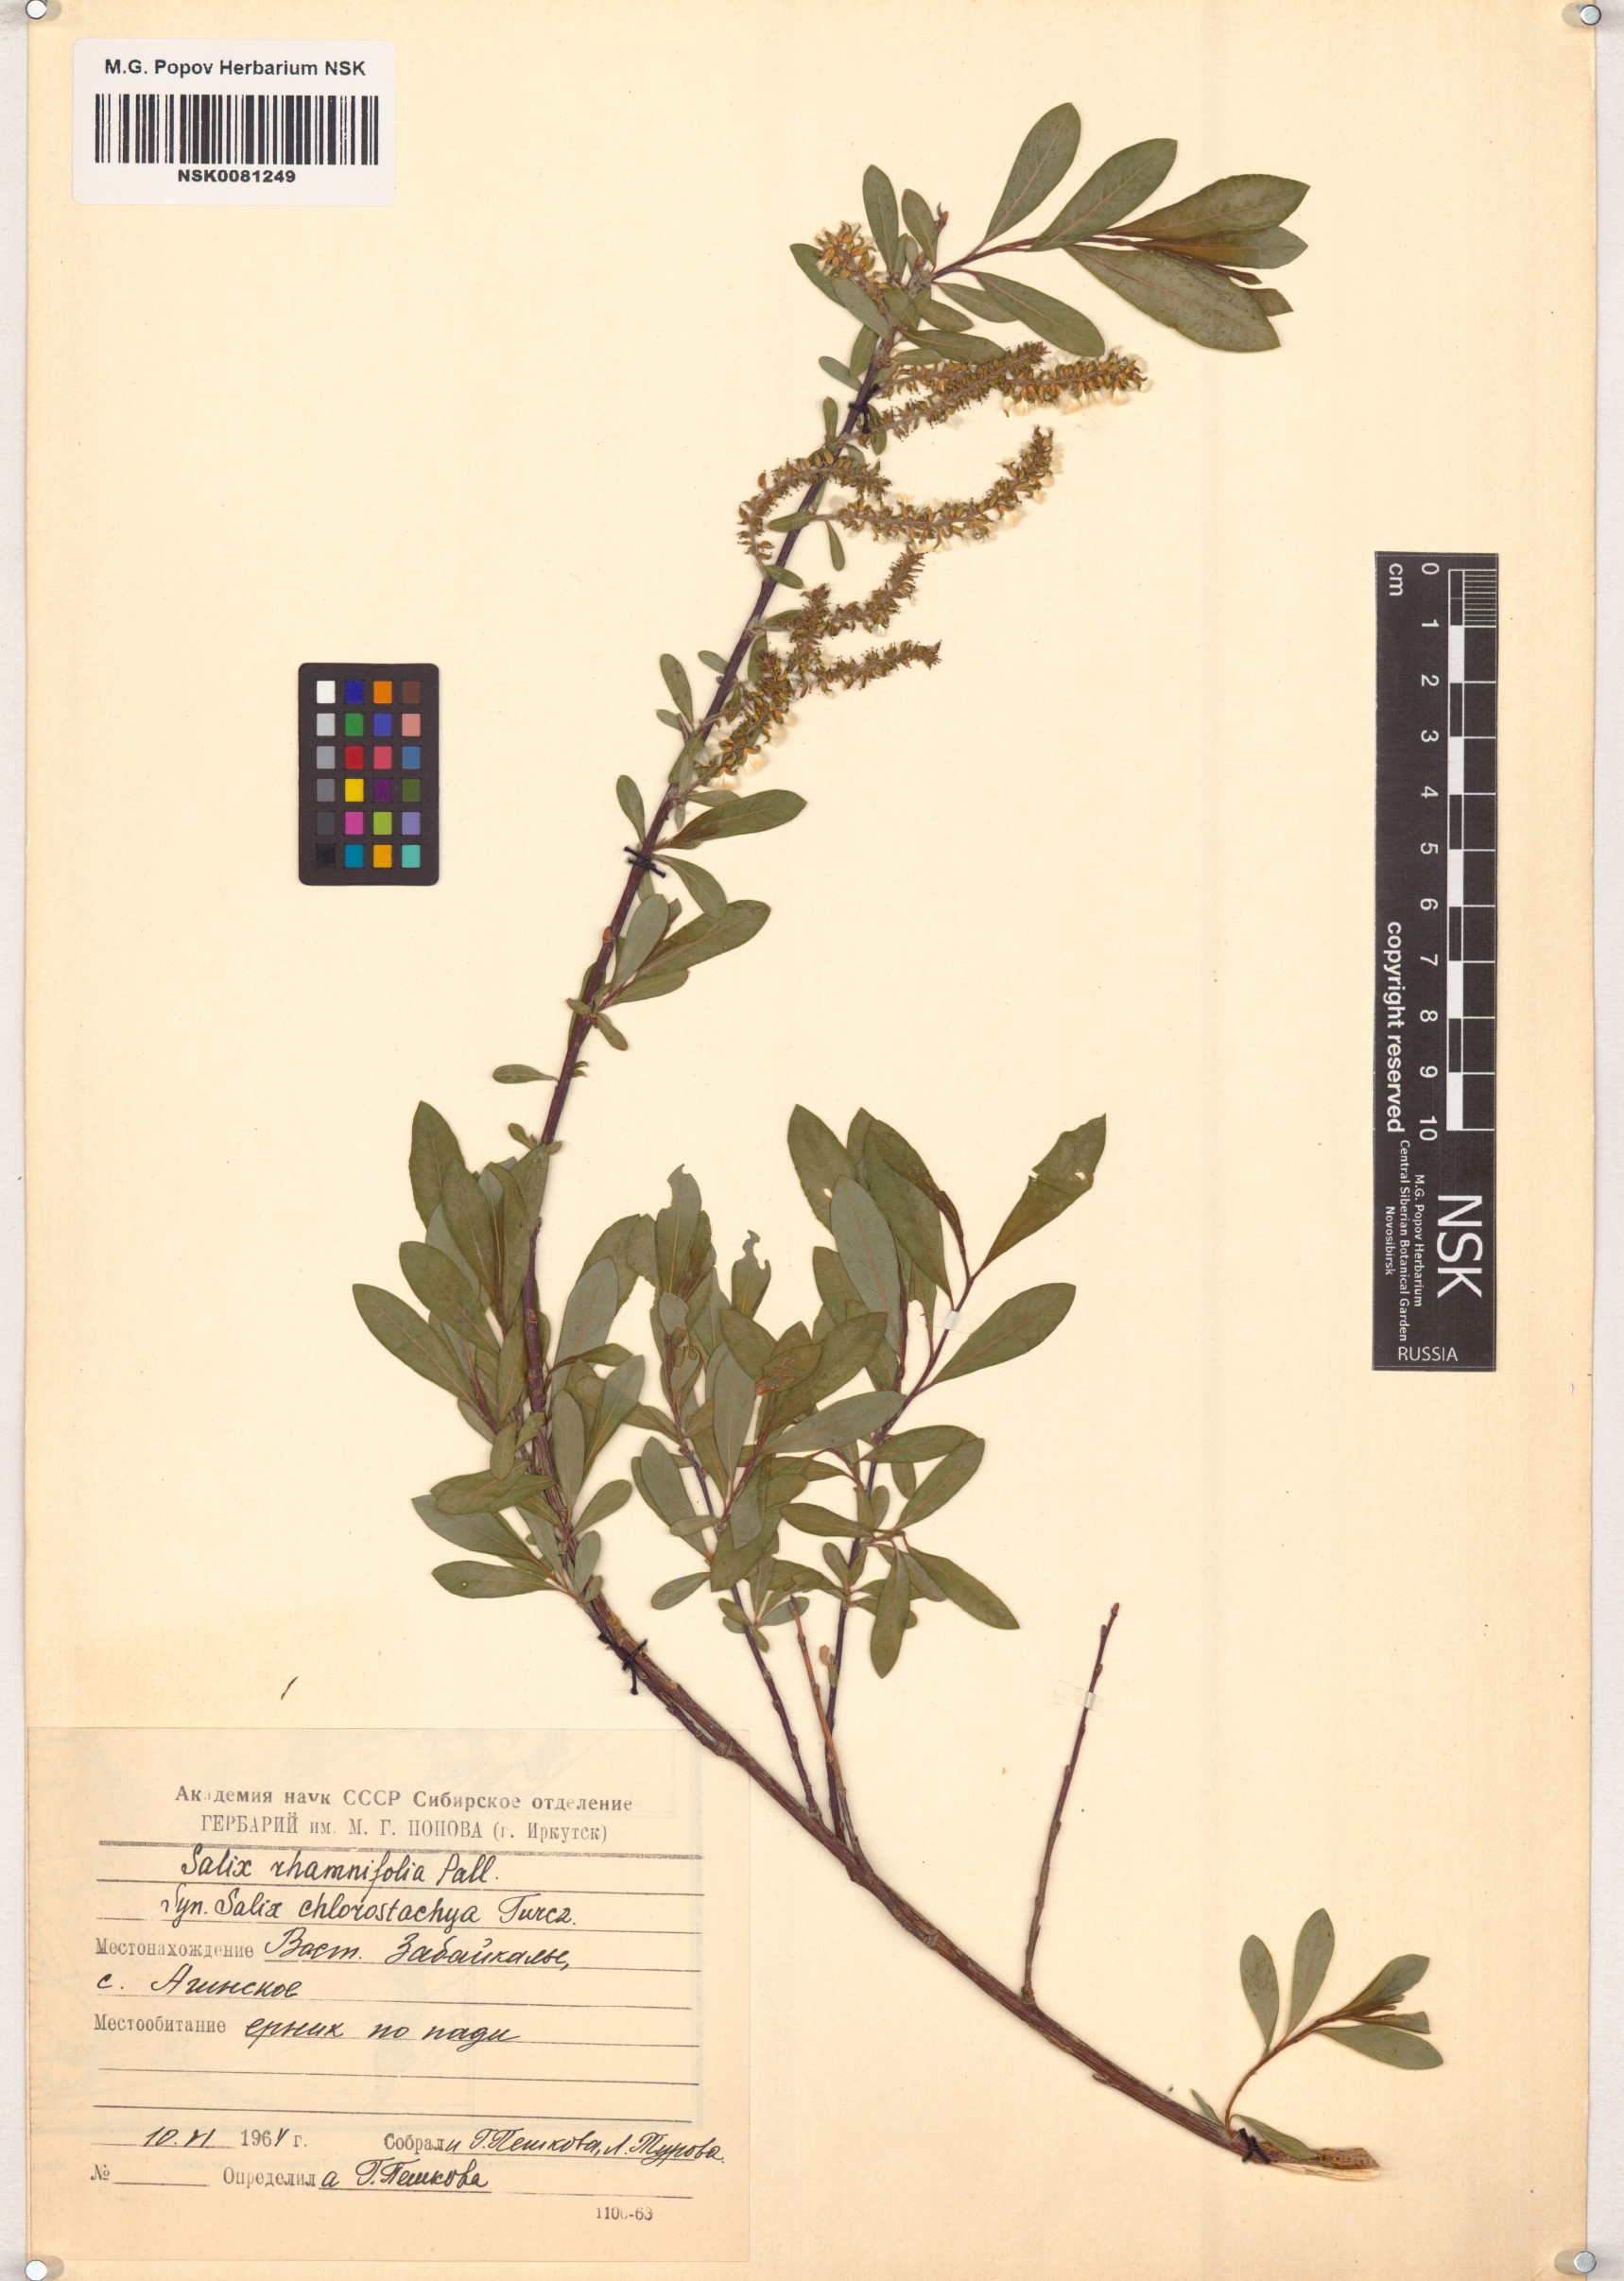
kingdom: Plantae
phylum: Tracheophyta
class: Magnoliopsida
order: Malpighiales
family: Salicaceae
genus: Salix
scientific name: Salix rhamnifolia
